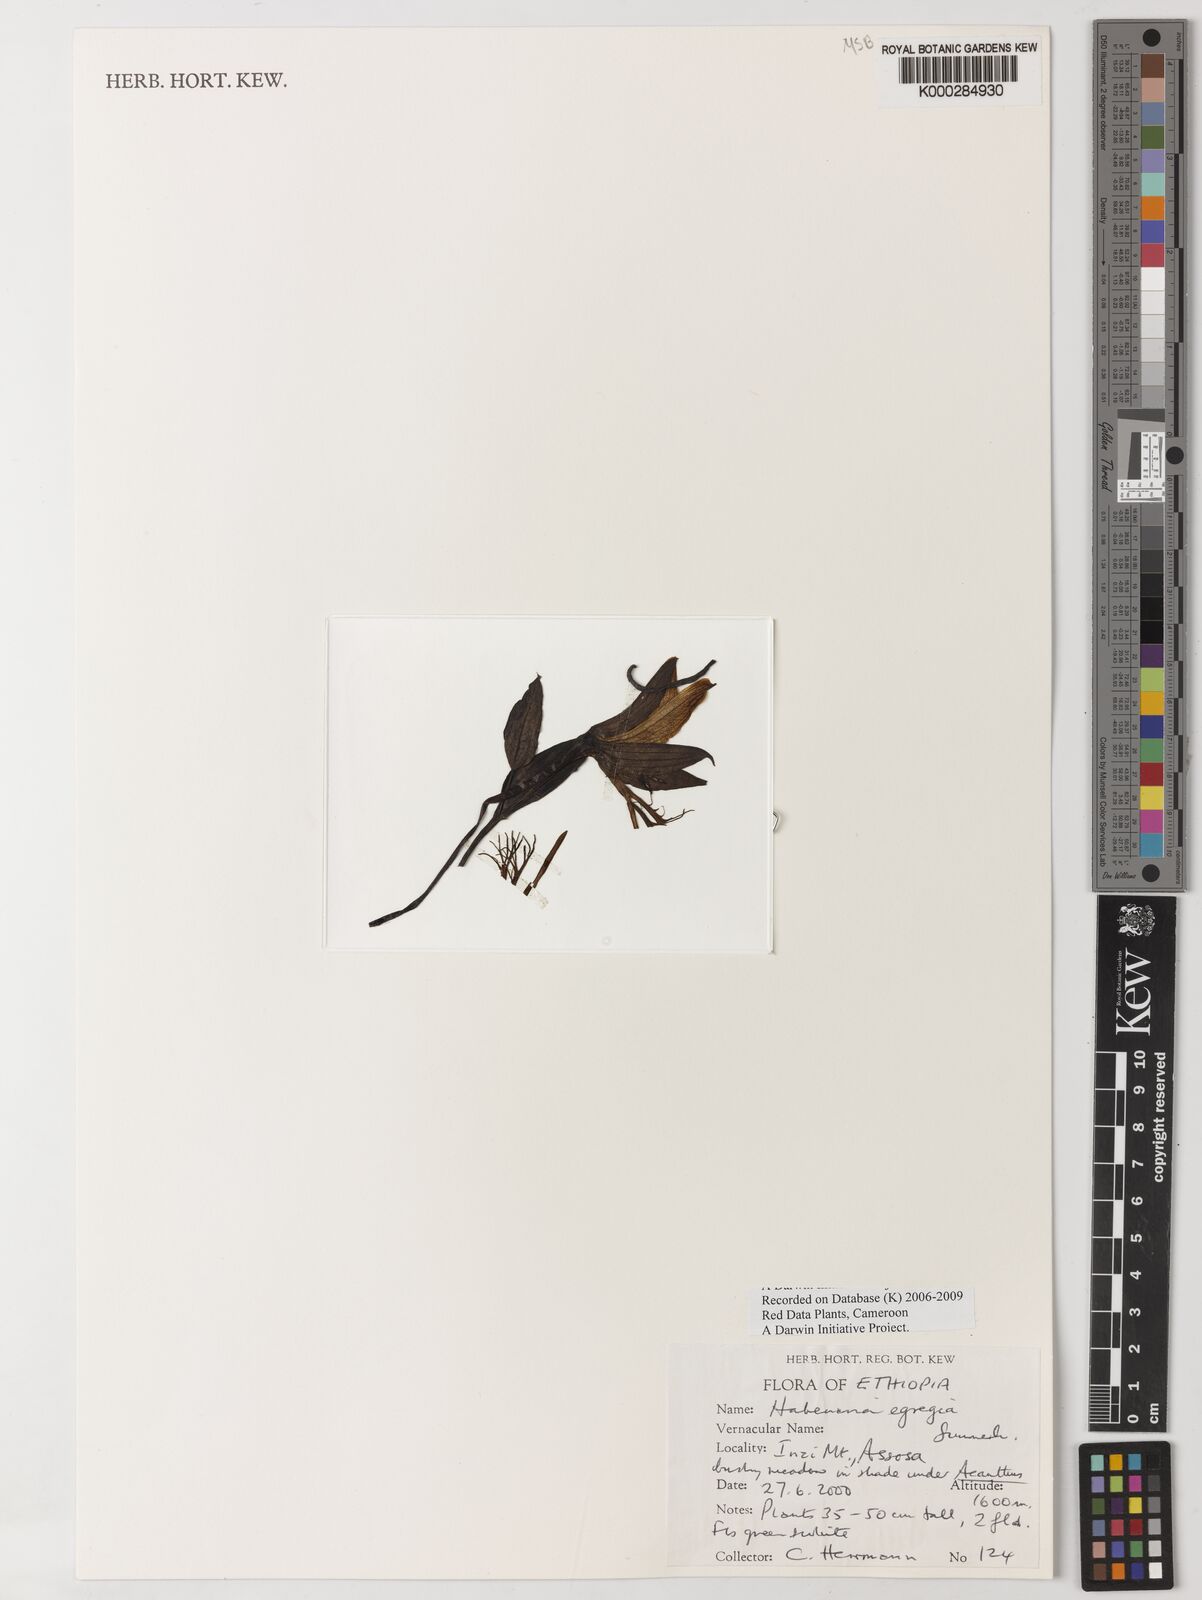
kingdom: Plantae
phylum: Tracheophyta
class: Liliopsida
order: Asparagales
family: Orchidaceae
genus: Habenaria
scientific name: Habenaria egregia
